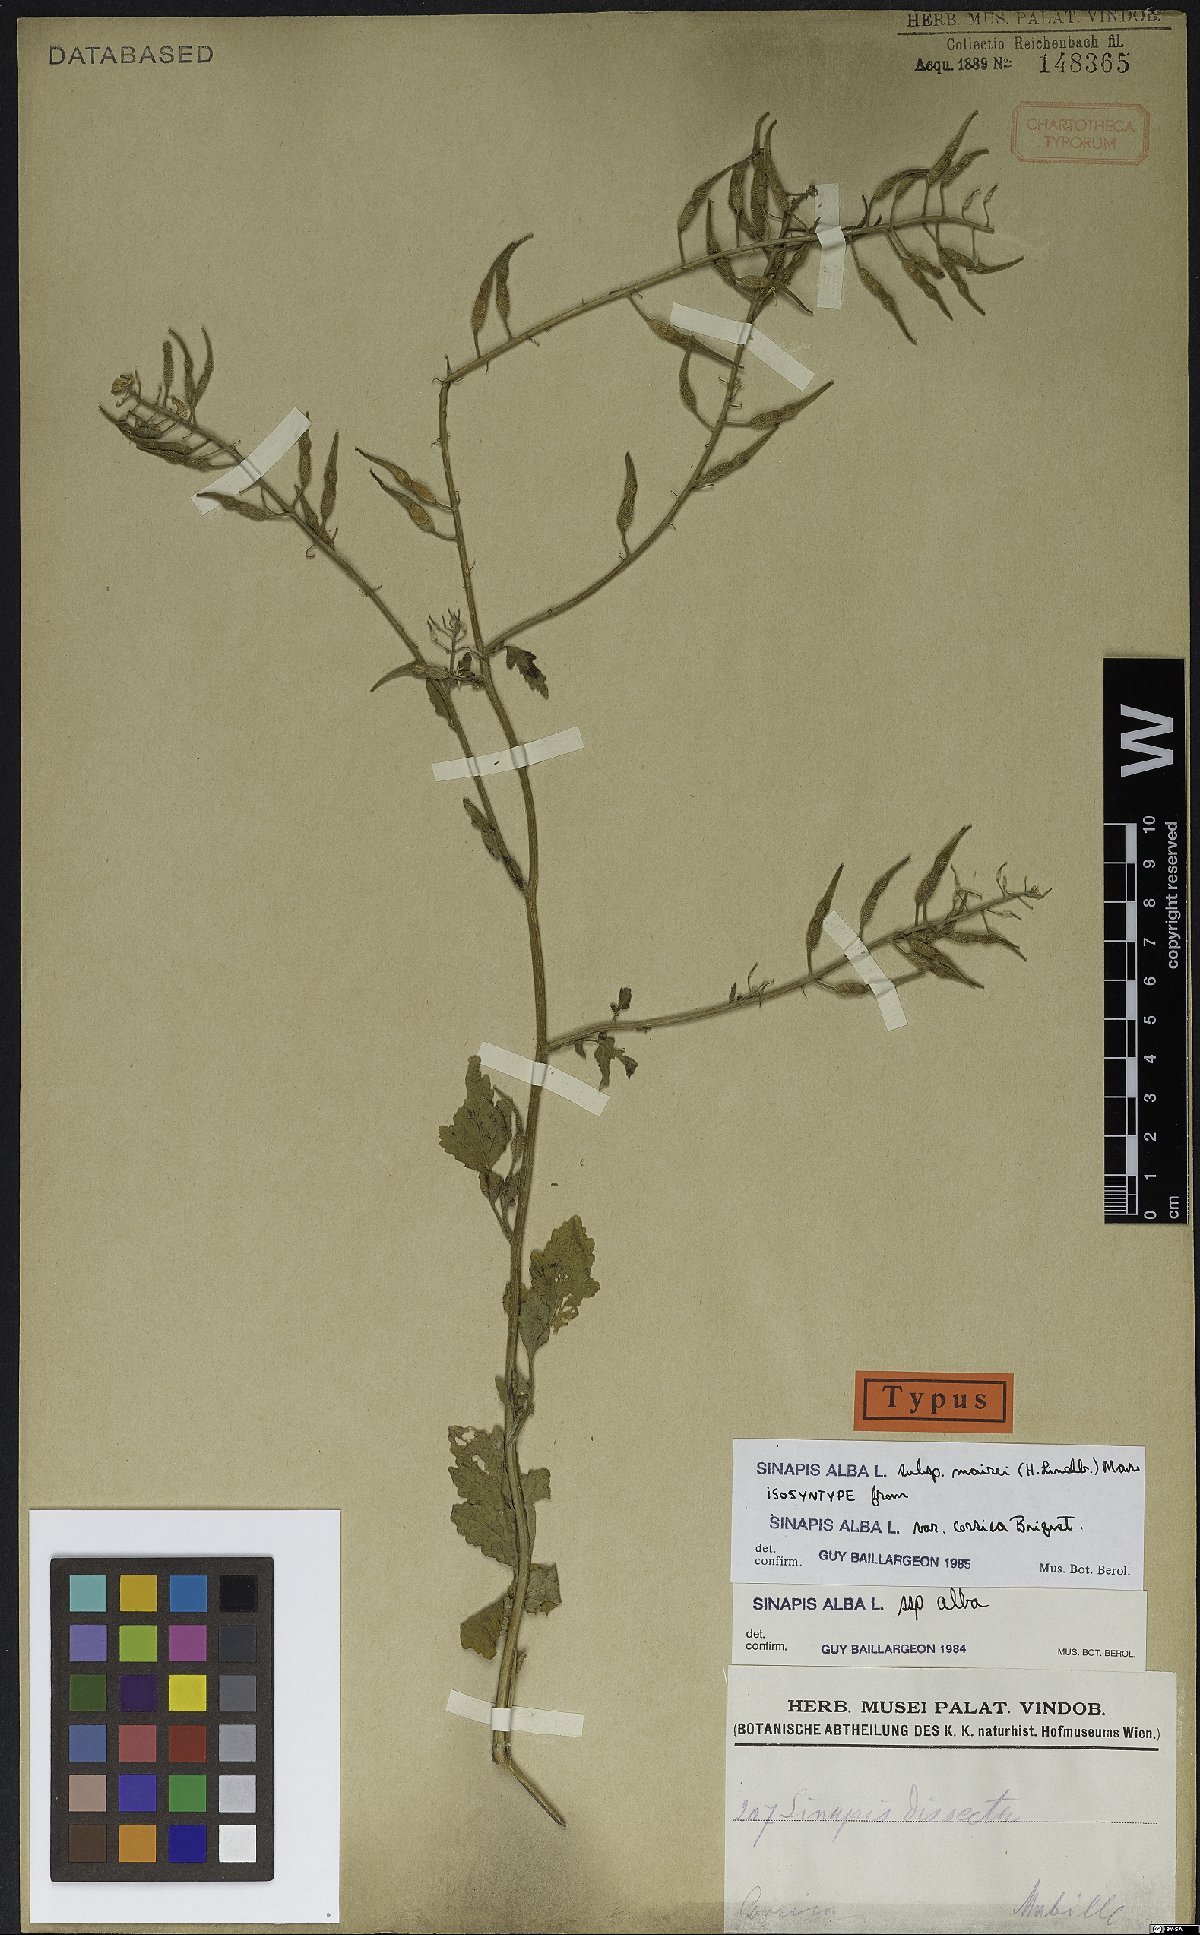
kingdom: Plantae
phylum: Tracheophyta
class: Magnoliopsida
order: Brassicales
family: Brassicaceae
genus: Sinapis
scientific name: Sinapis alba
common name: White mustard
